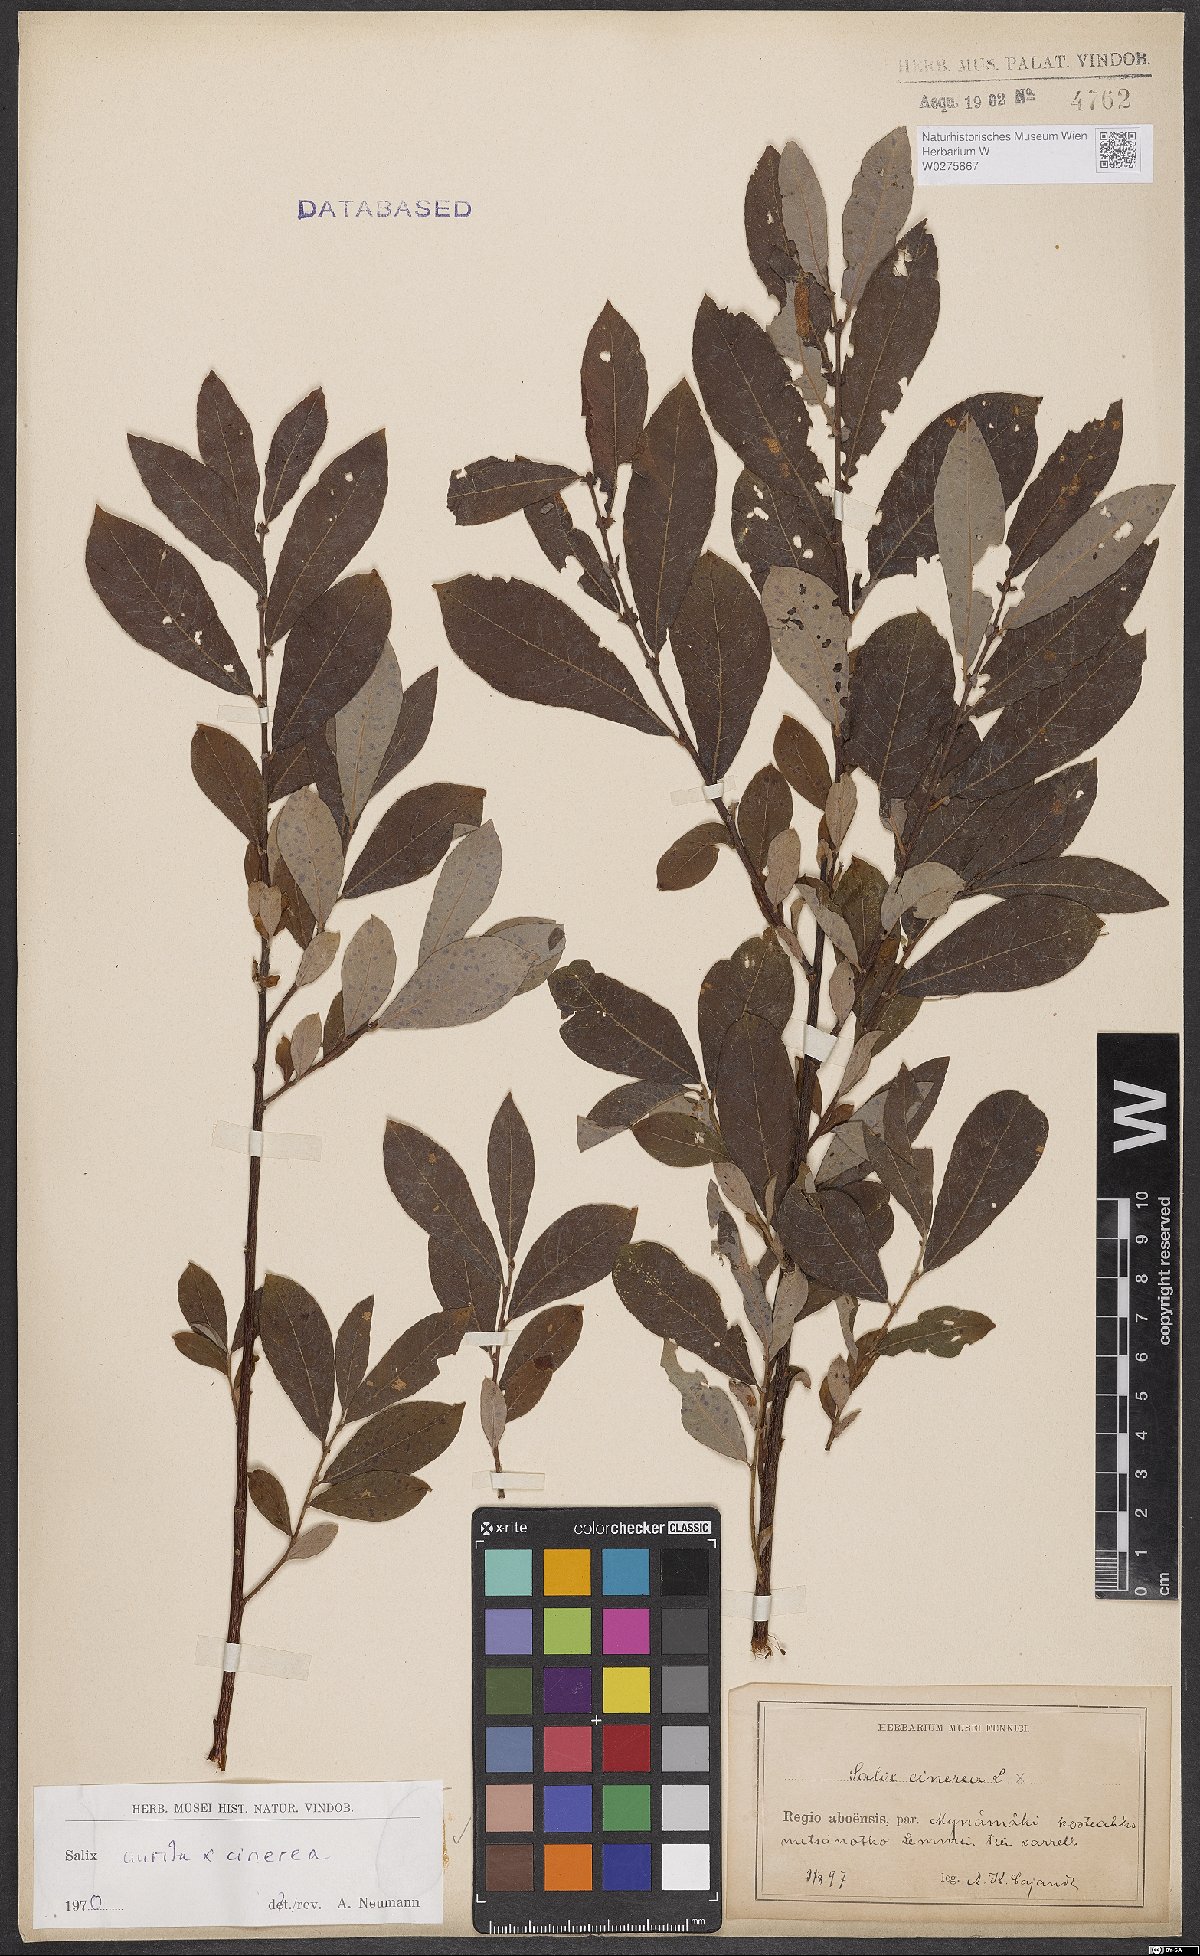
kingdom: Plantae
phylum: Tracheophyta
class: Magnoliopsida
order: Malpighiales
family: Salicaceae
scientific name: Salicaceae
